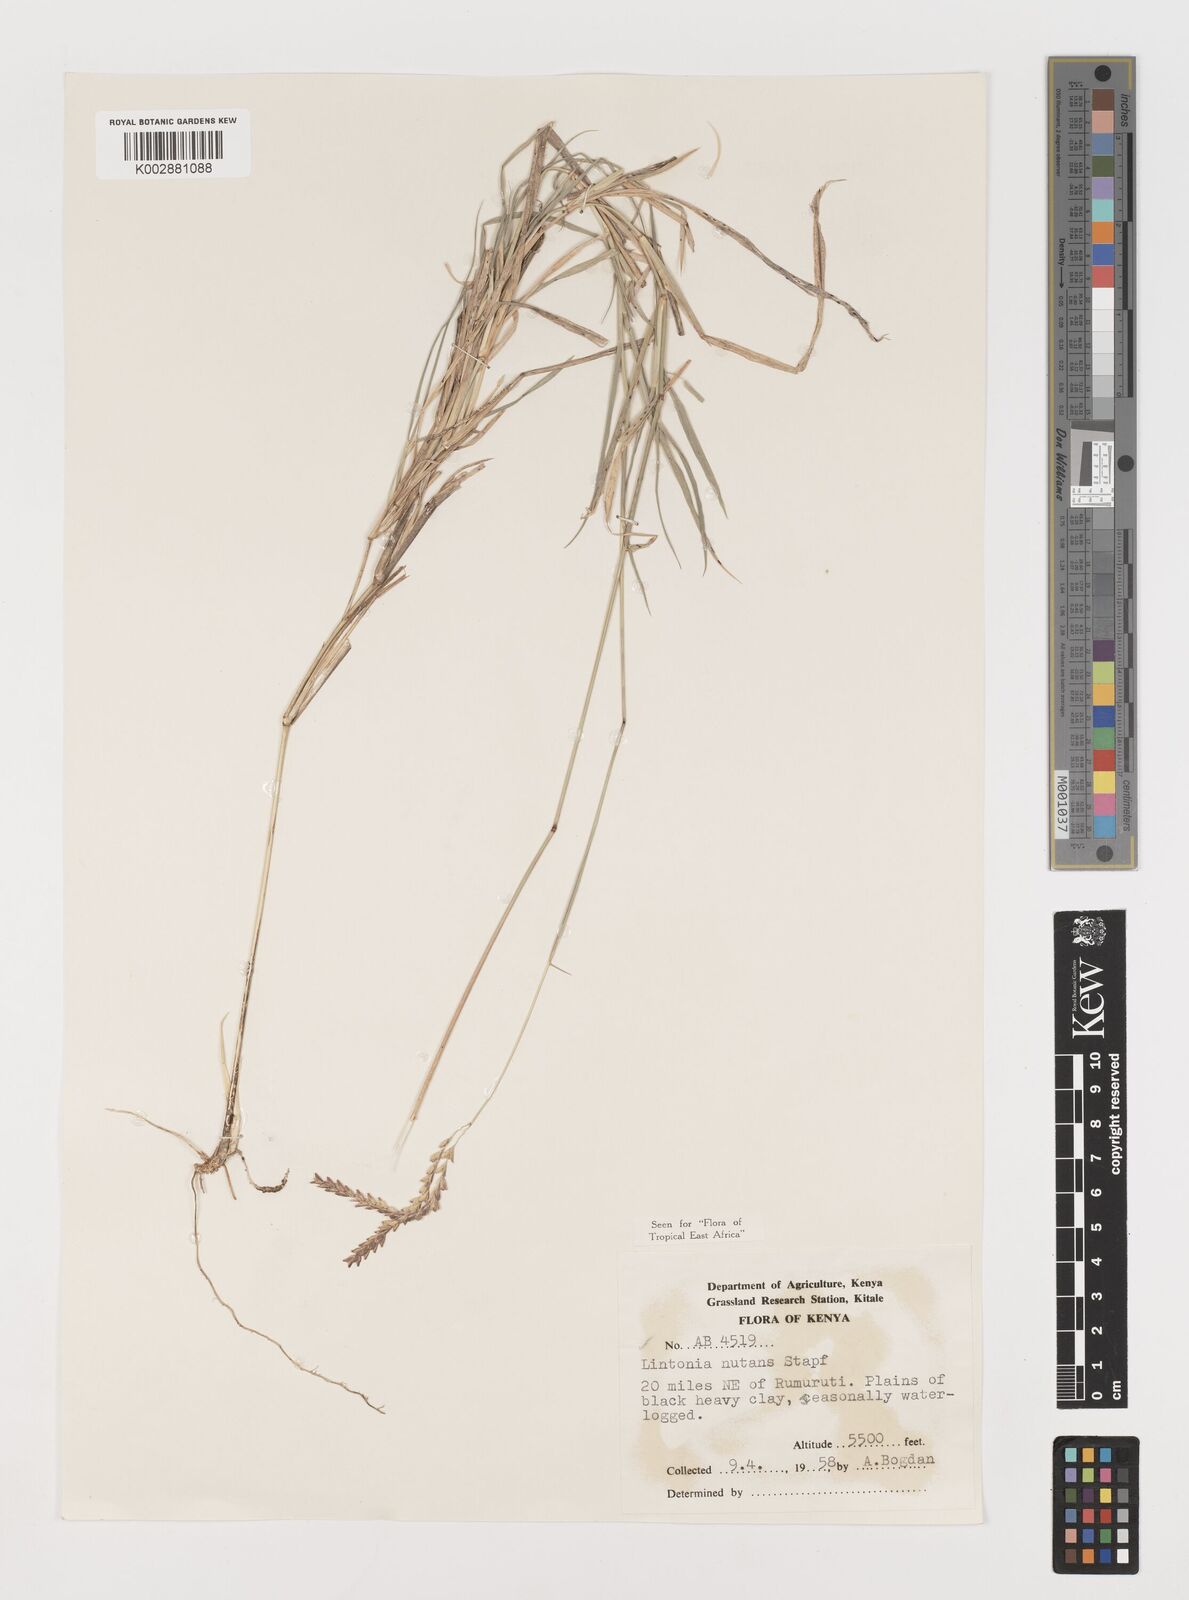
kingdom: Plantae
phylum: Tracheophyta
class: Liliopsida
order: Poales
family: Poaceae
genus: Chloris
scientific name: Chloris nutans
